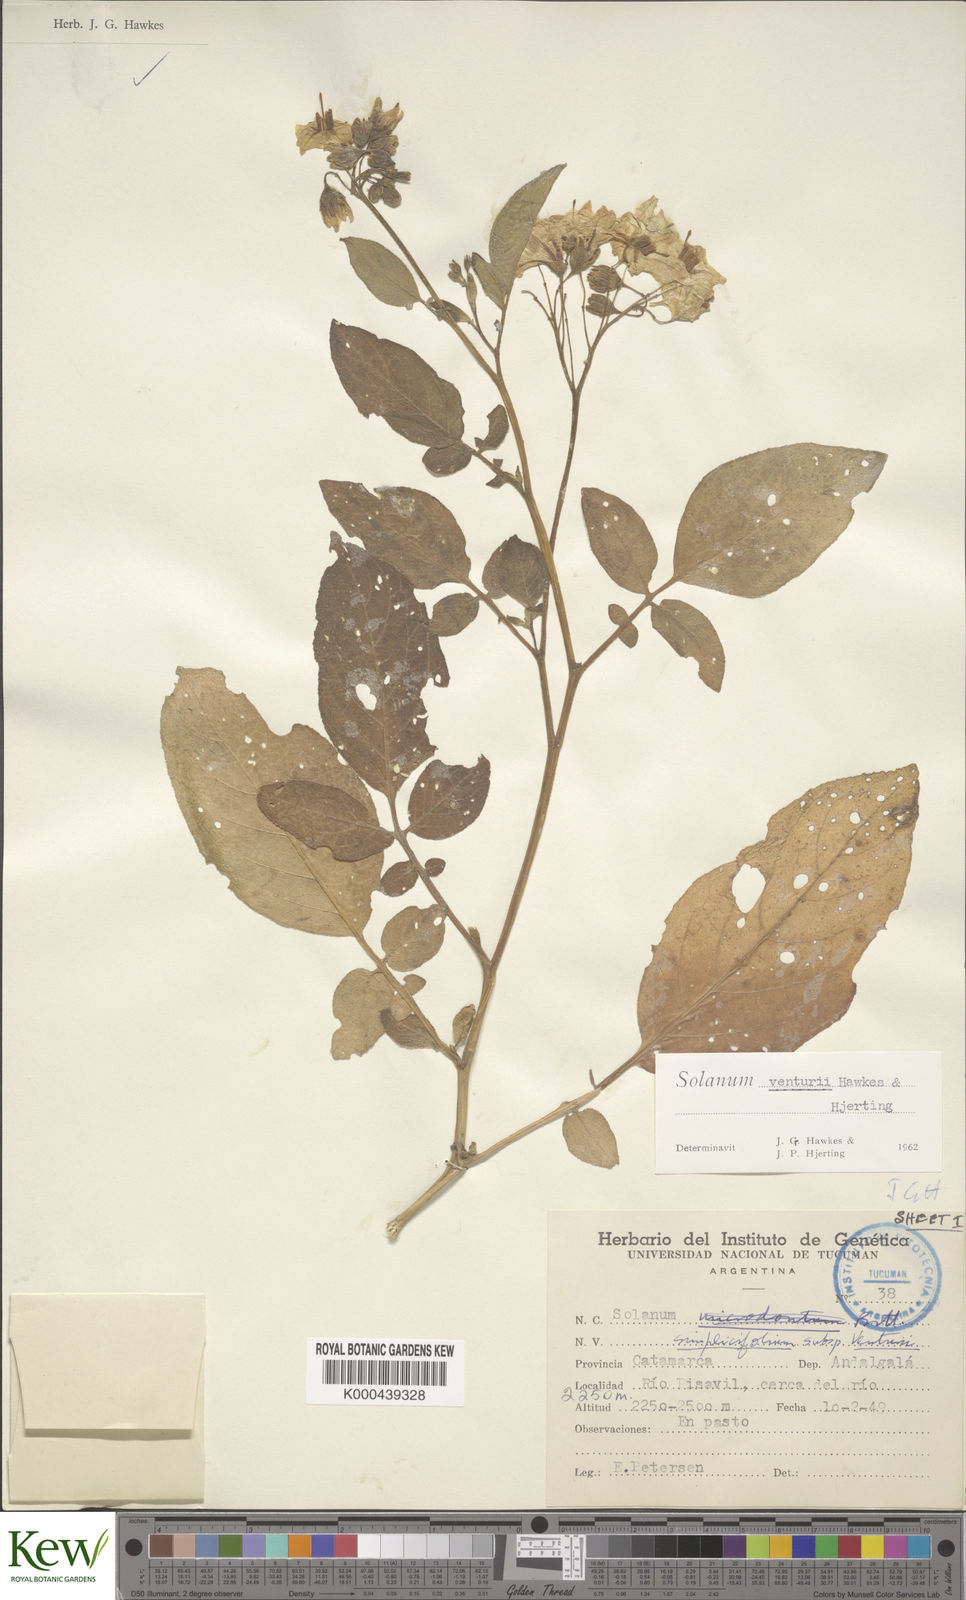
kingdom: Plantae
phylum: Tracheophyta
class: Magnoliopsida
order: Solanales
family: Solanaceae
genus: Solanum
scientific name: Solanum venturii
